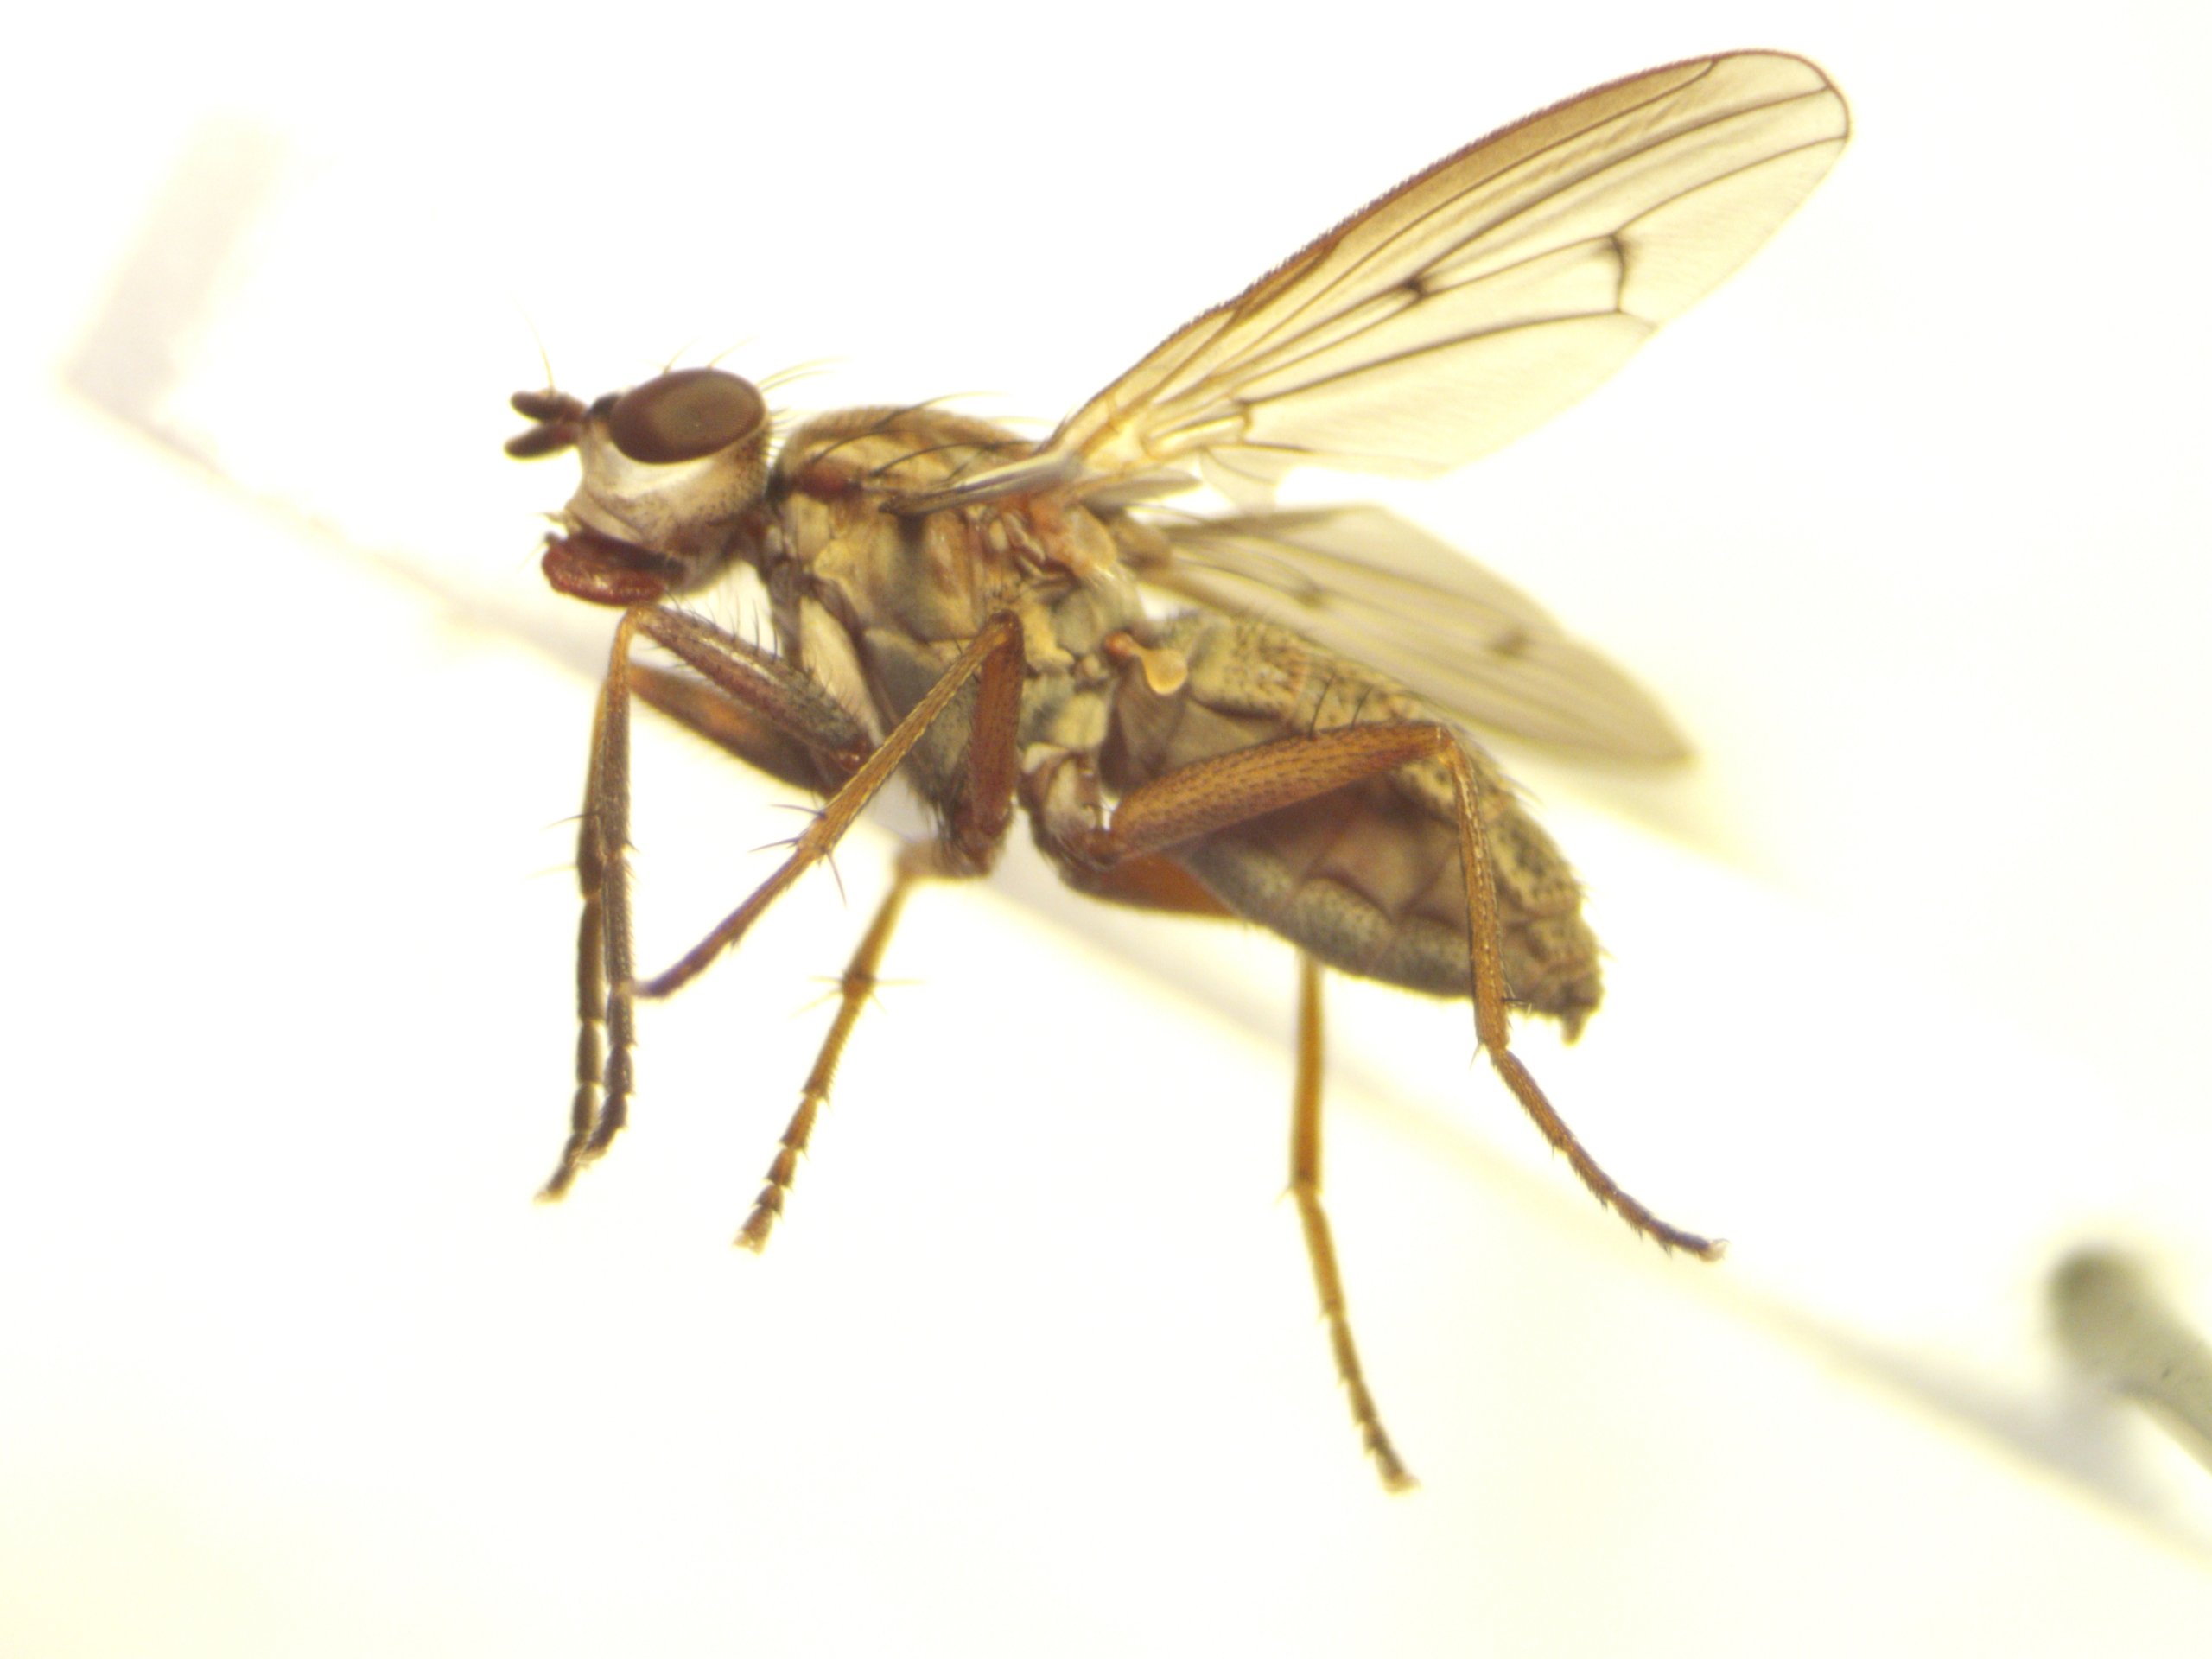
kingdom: Animalia
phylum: Arthropoda
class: Insecta
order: Diptera
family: Sciomyzidae
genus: Pherbellia
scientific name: Pherbellia cinerella
